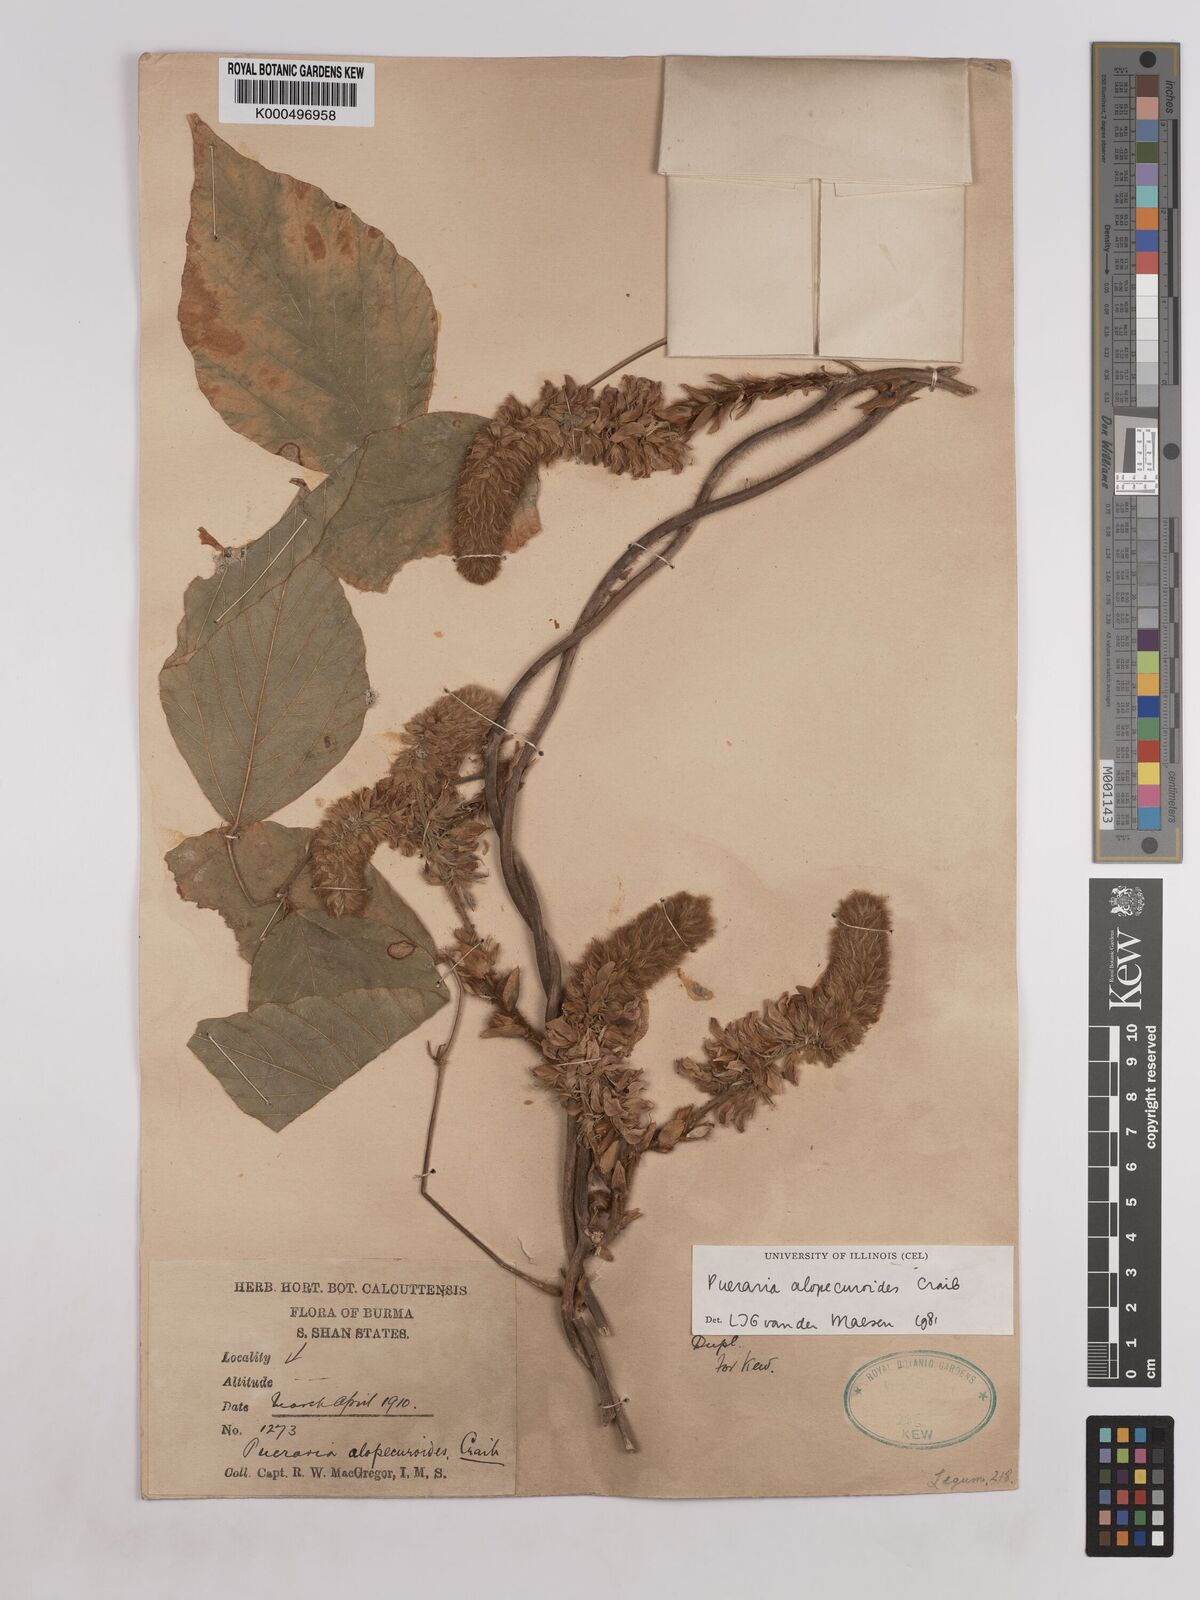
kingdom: Plantae
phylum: Tracheophyta
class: Magnoliopsida
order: Fabales
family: Fabaceae
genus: Pueraria
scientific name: Pueraria alopecuroides
